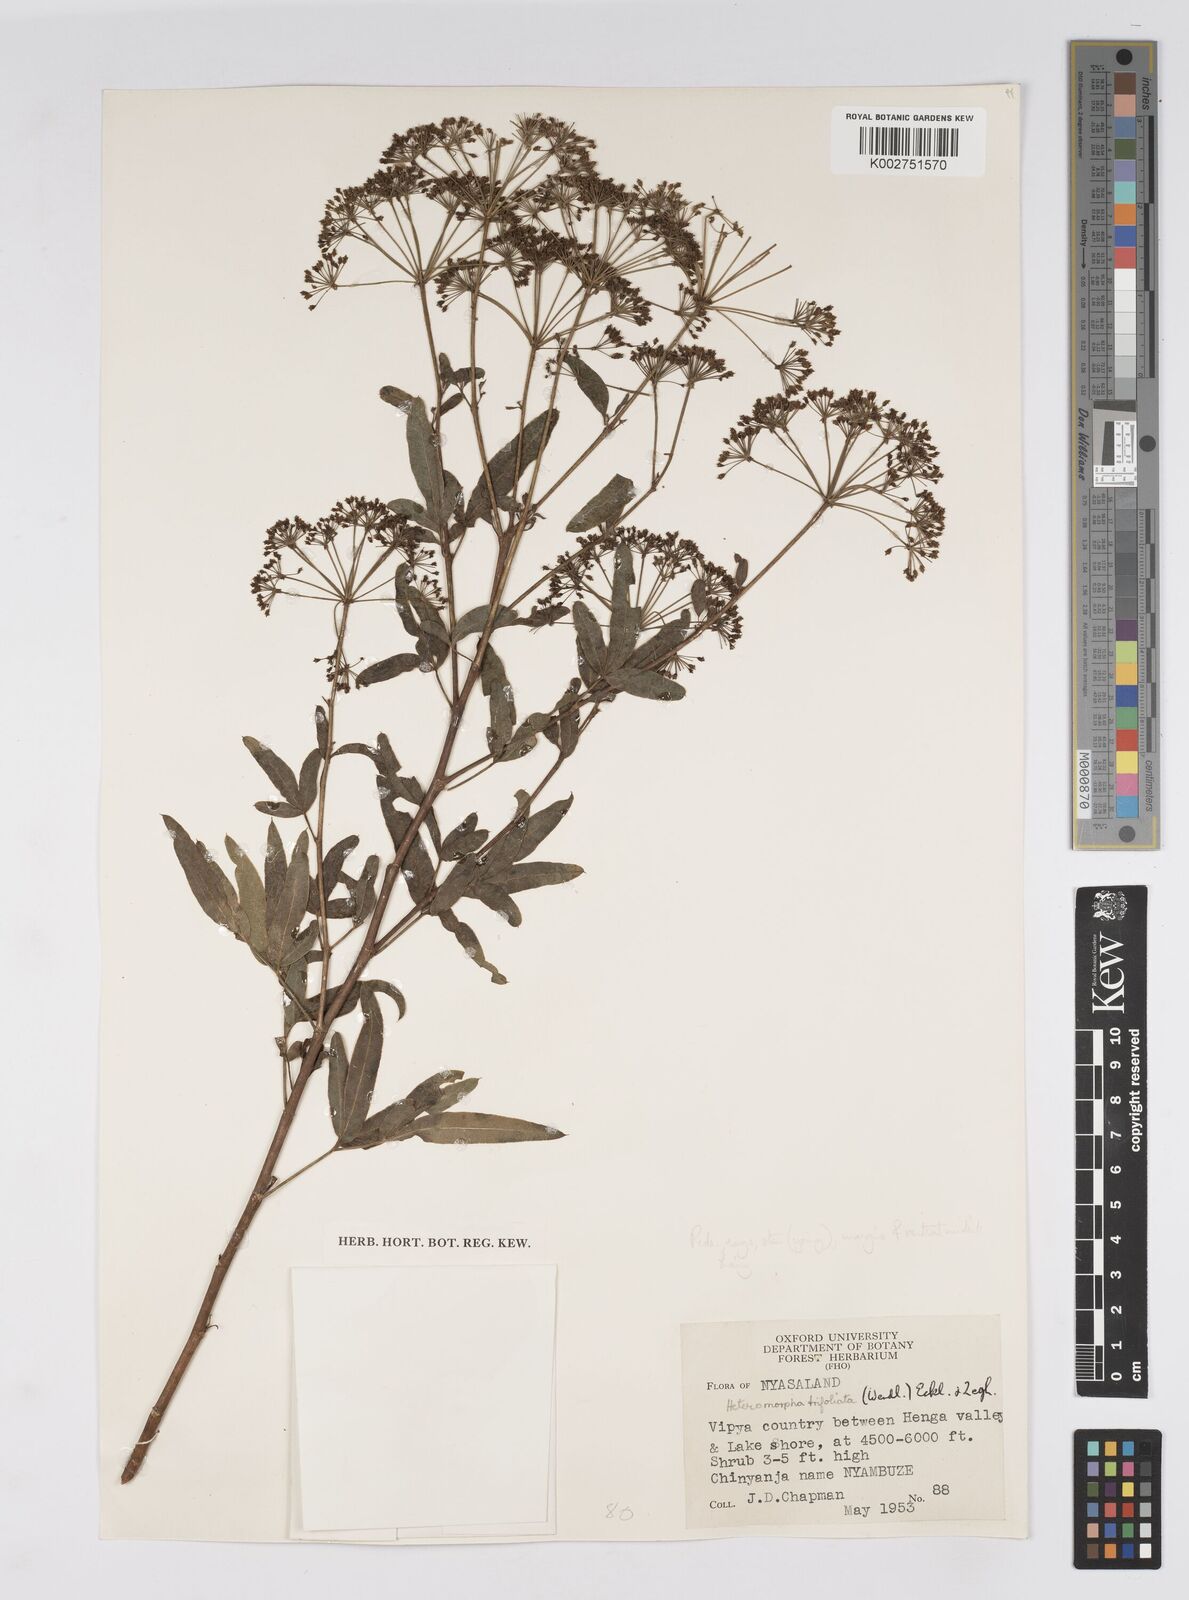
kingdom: Plantae
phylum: Tracheophyta
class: Magnoliopsida
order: Apiales
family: Apiaceae
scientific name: Apiaceae
